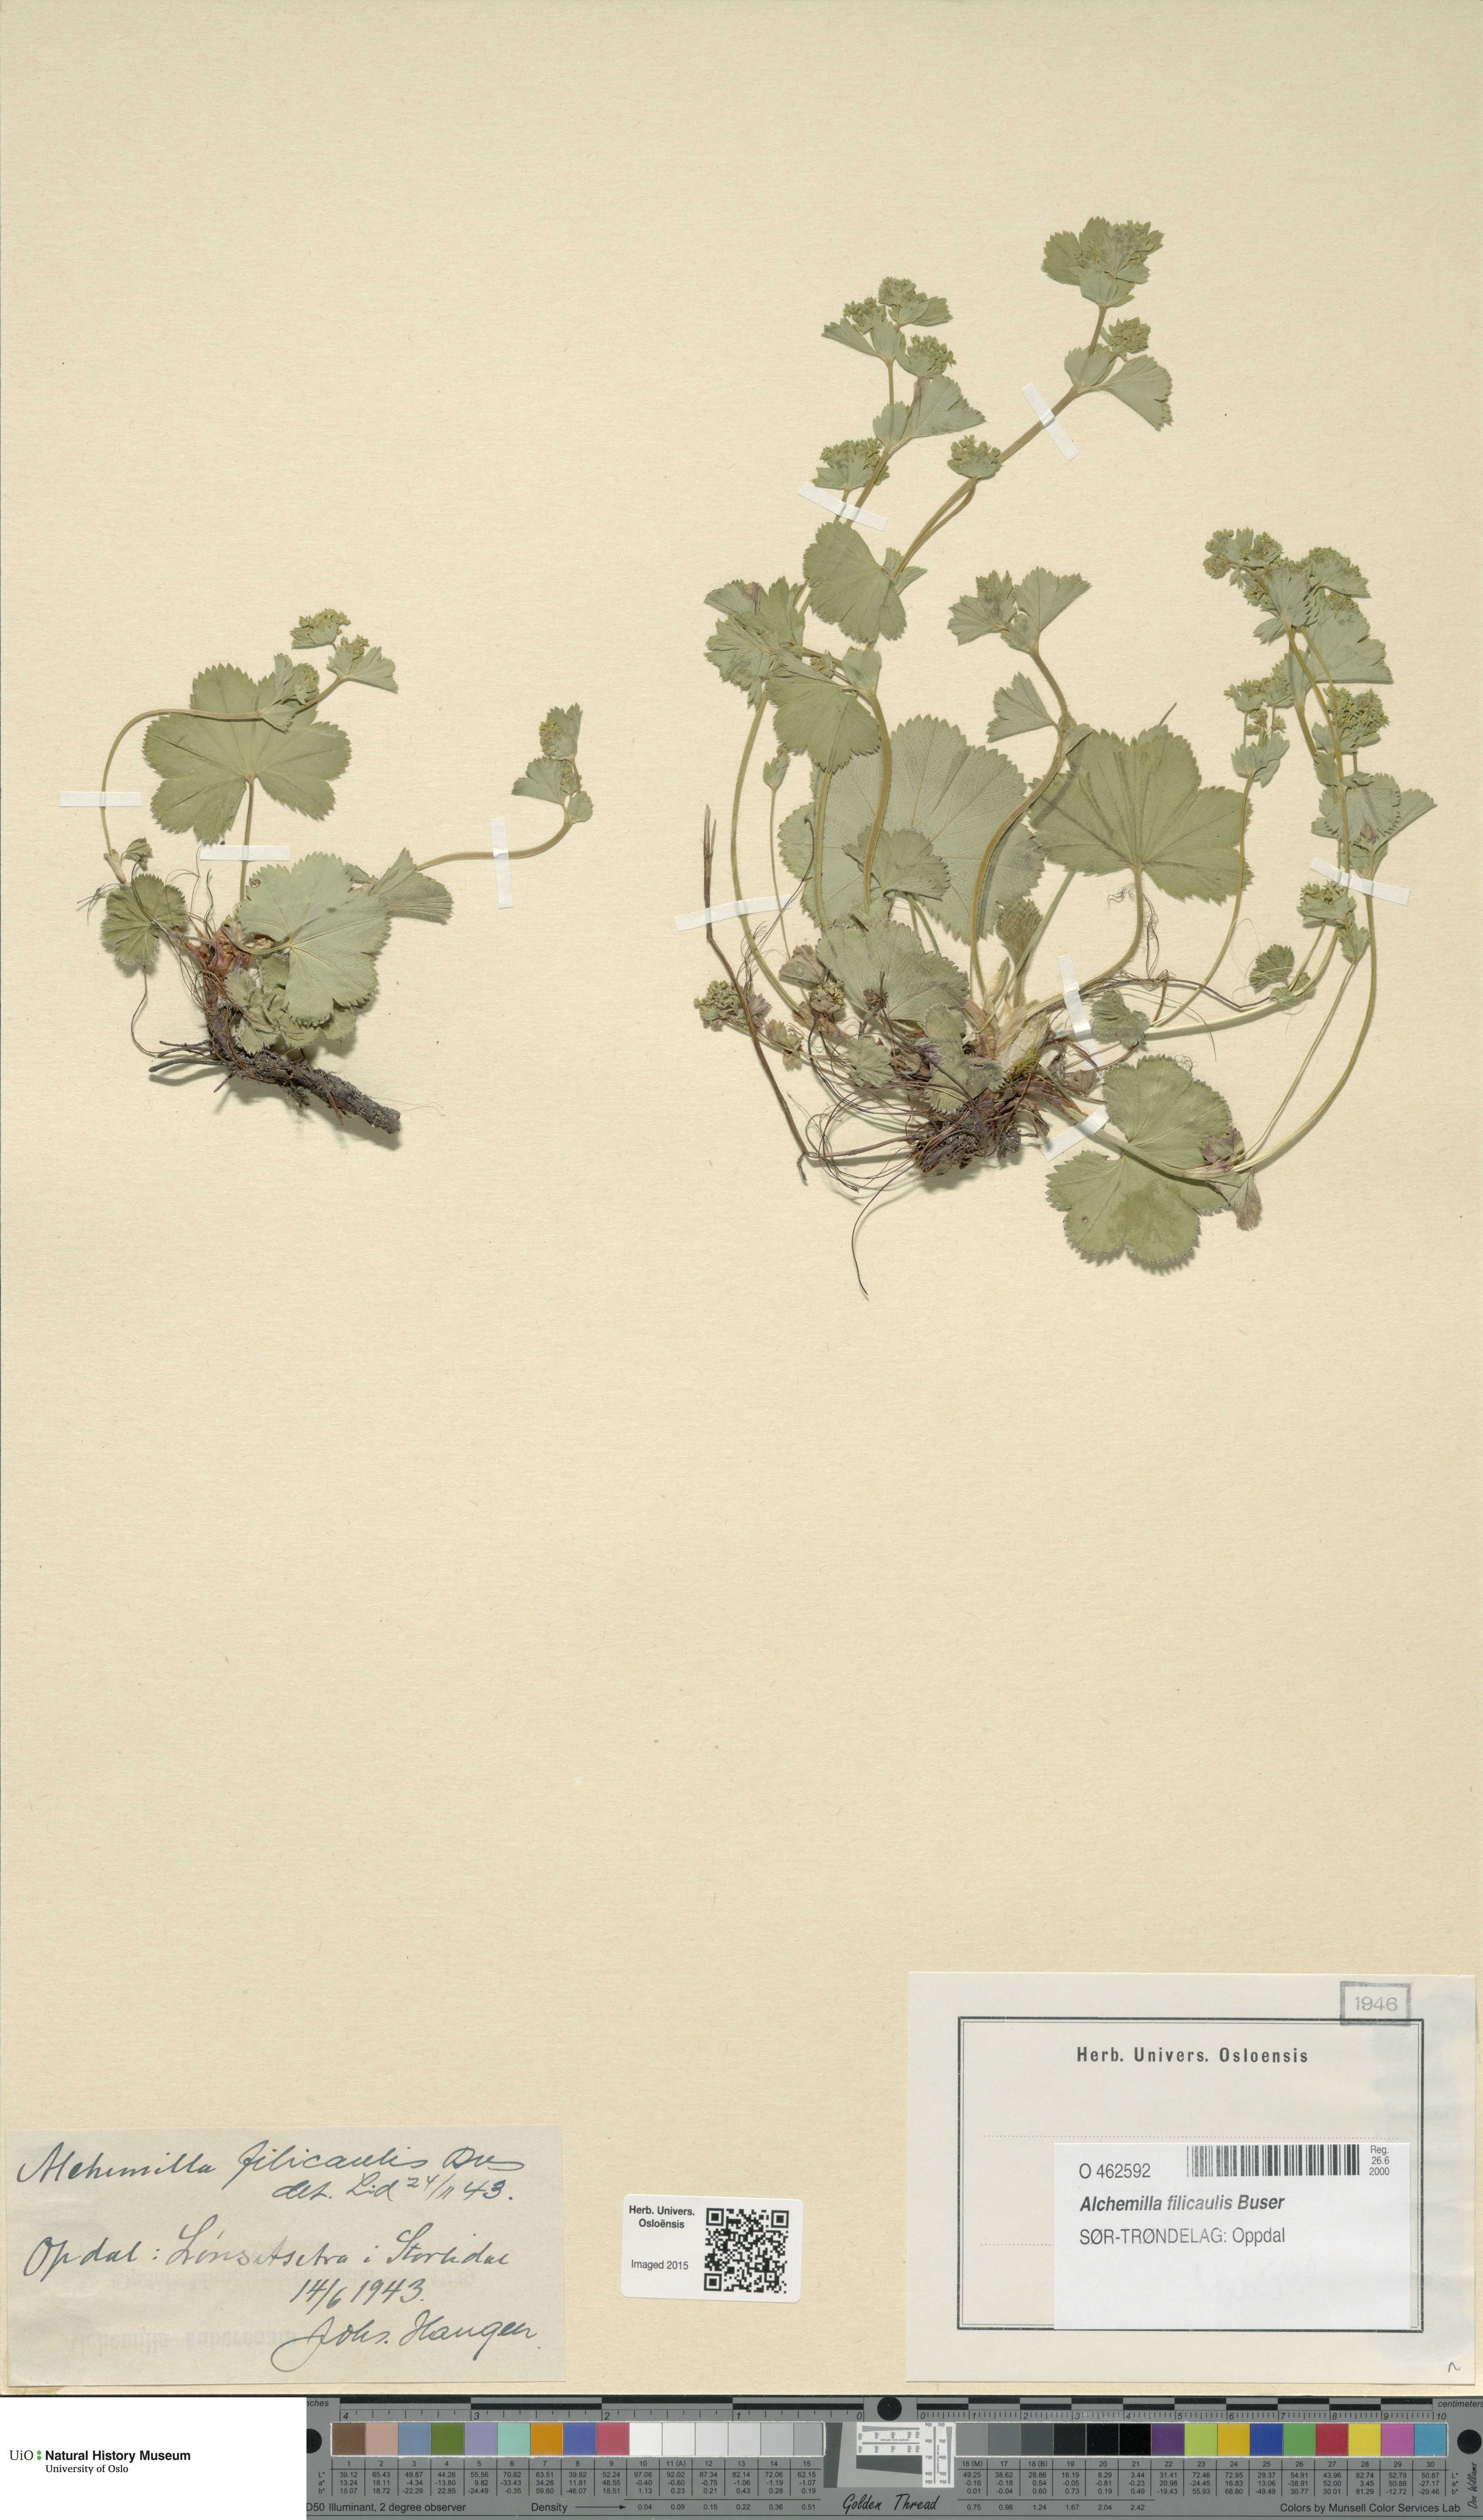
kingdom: Plantae
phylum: Tracheophyta
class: Magnoliopsida
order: Rosales
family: Rosaceae
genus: Alchemilla
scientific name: Alchemilla filicaulis
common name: Hairy lady's-mantle
